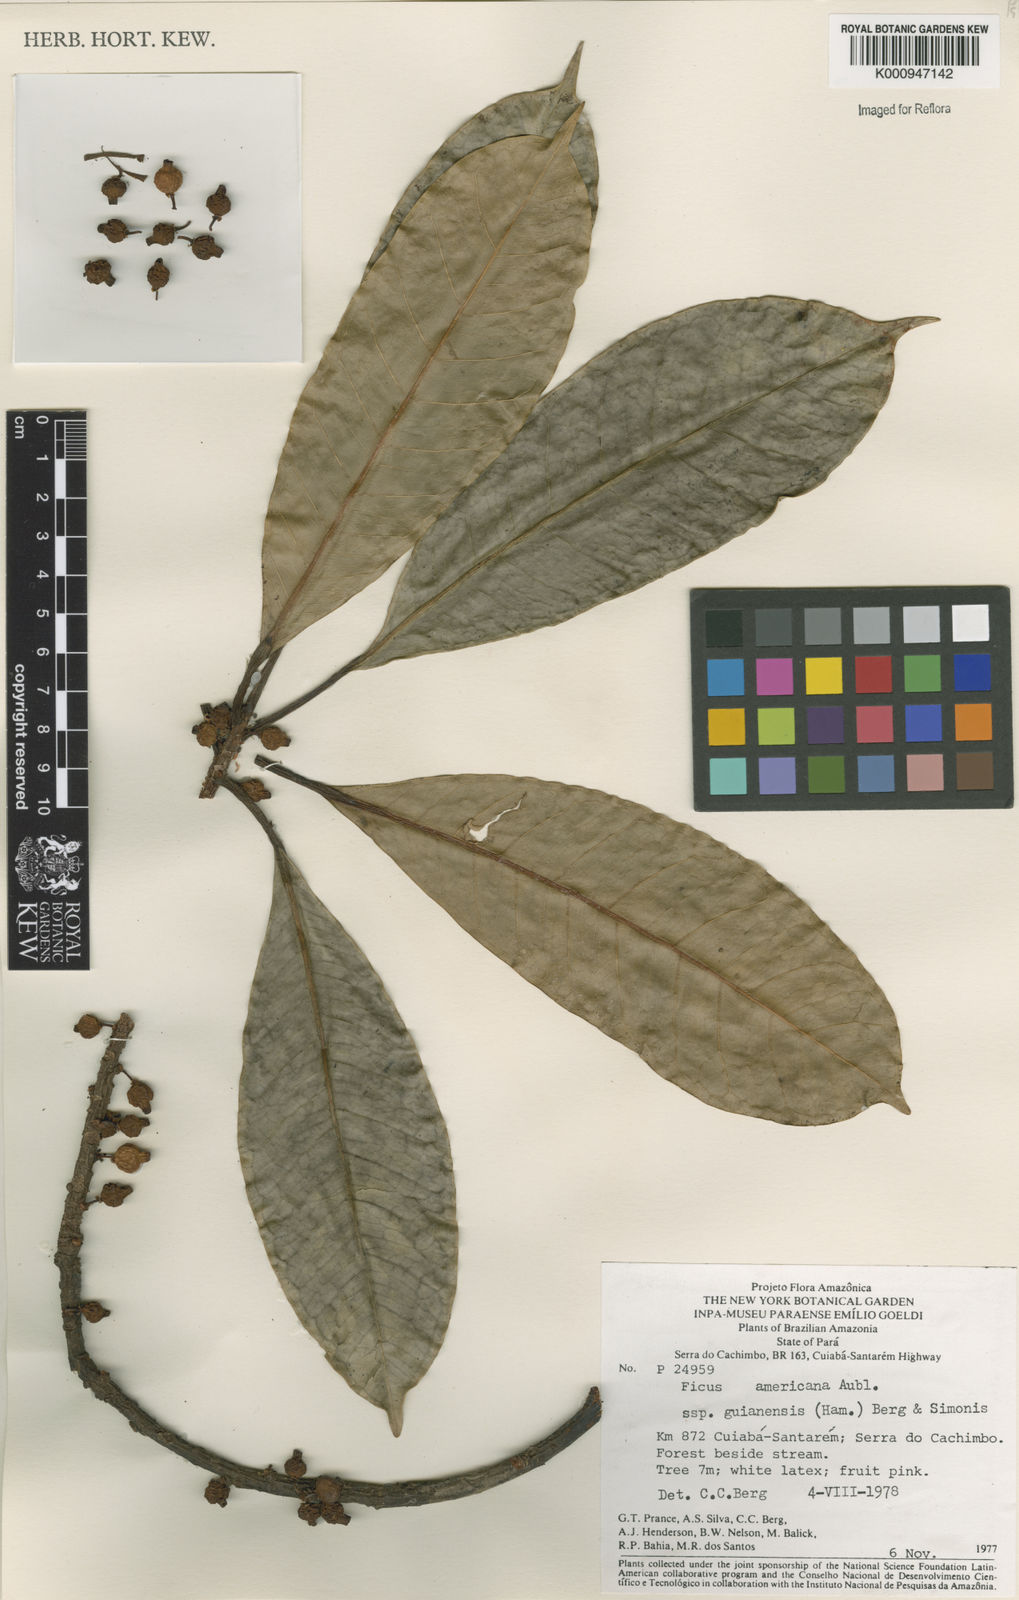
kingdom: Plantae
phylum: Tracheophyta
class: Magnoliopsida
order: Rosales
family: Moraceae
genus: Ficus
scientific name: Ficus americana
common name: Jamaican cherry fig
